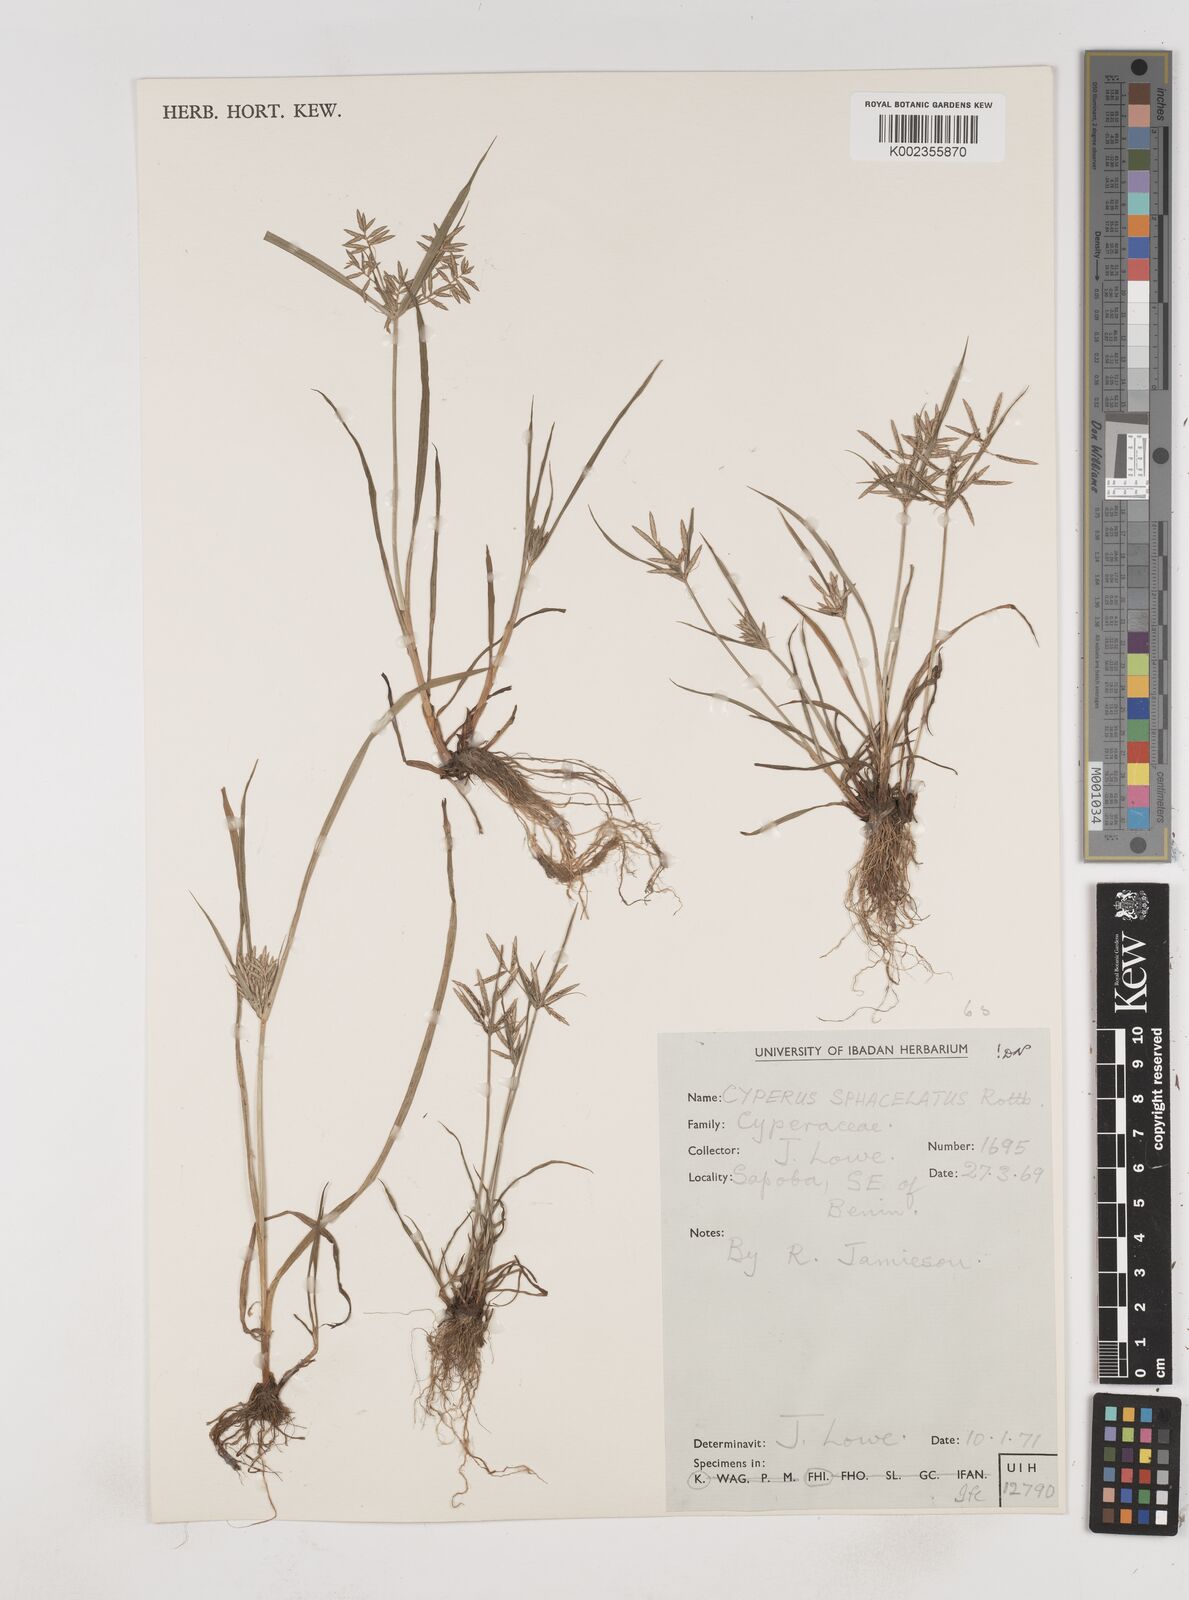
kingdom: Plantae
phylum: Tracheophyta
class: Liliopsida
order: Poales
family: Cyperaceae
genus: Cyperus
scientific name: Cyperus sphacelatus
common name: Roadside flatsedge
